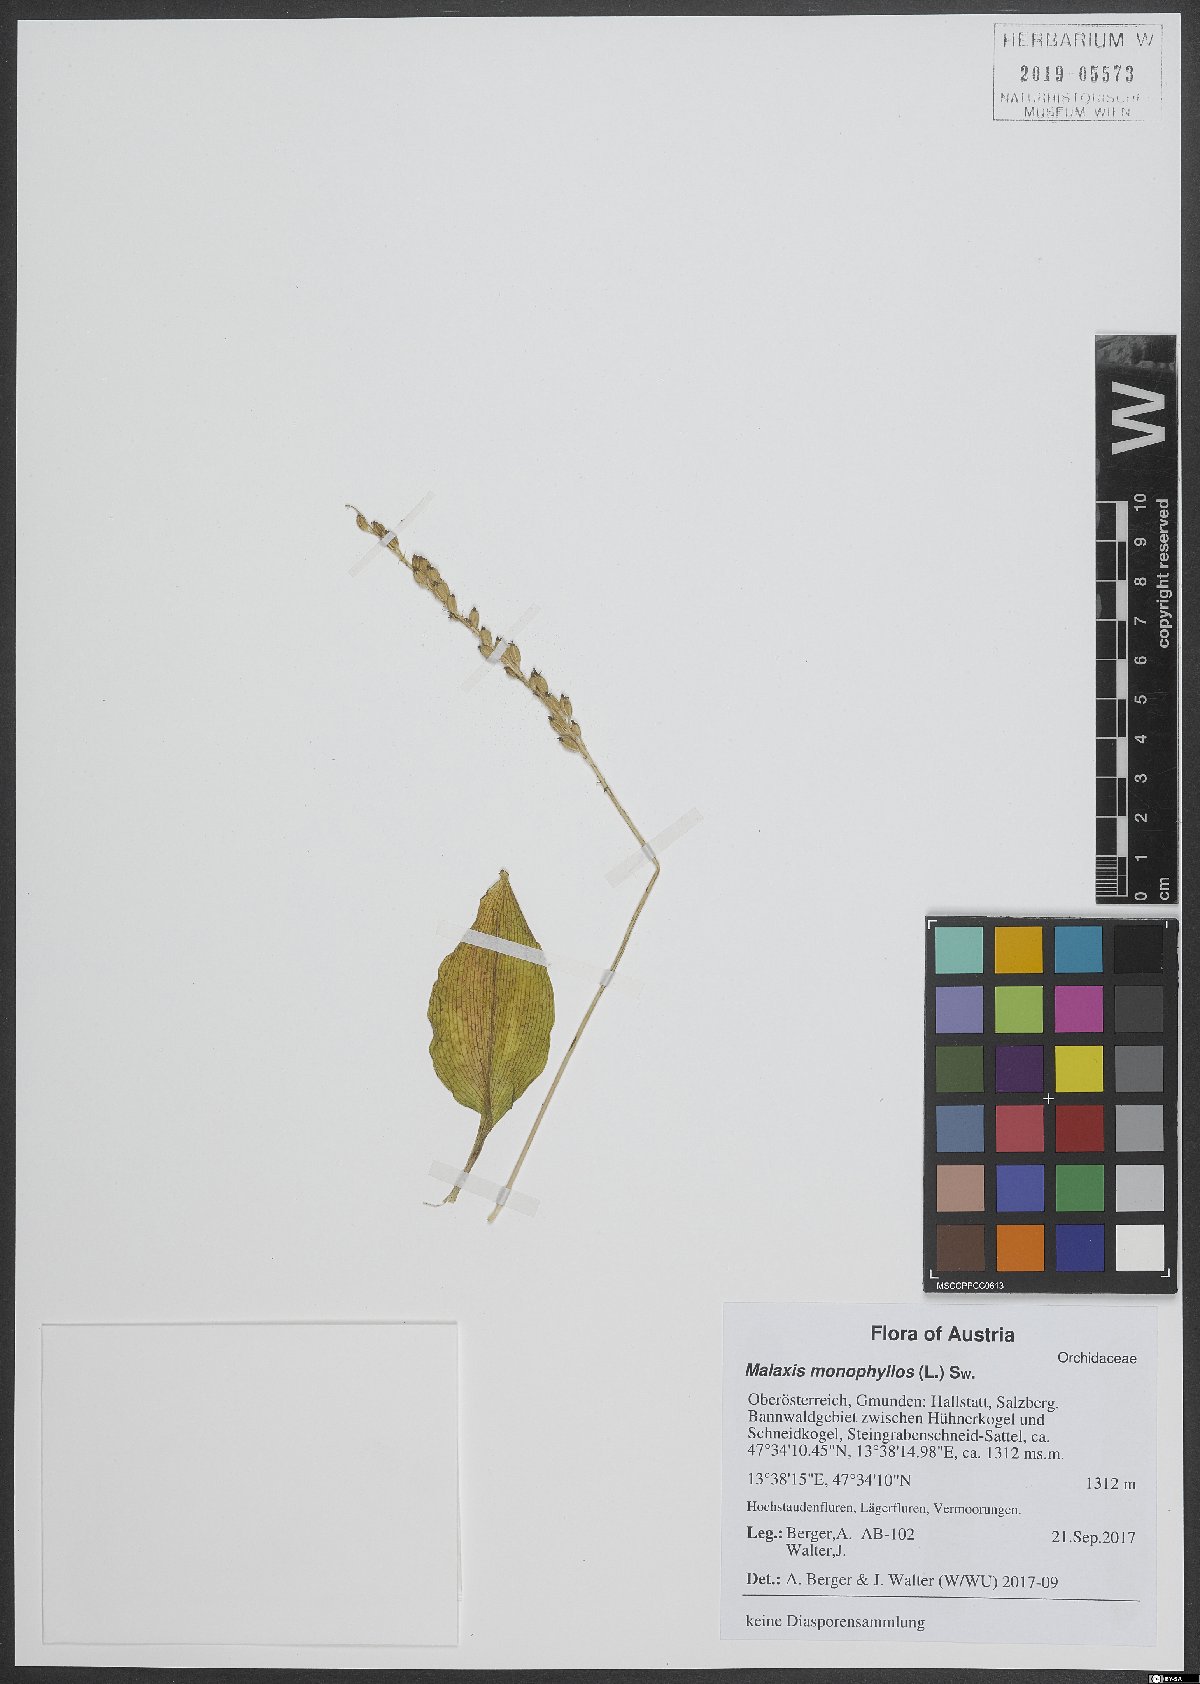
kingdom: Plantae
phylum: Tracheophyta
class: Liliopsida
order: Asparagales
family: Orchidaceae
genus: Malaxis
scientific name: Malaxis monophyllos
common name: White adder's-mouth
